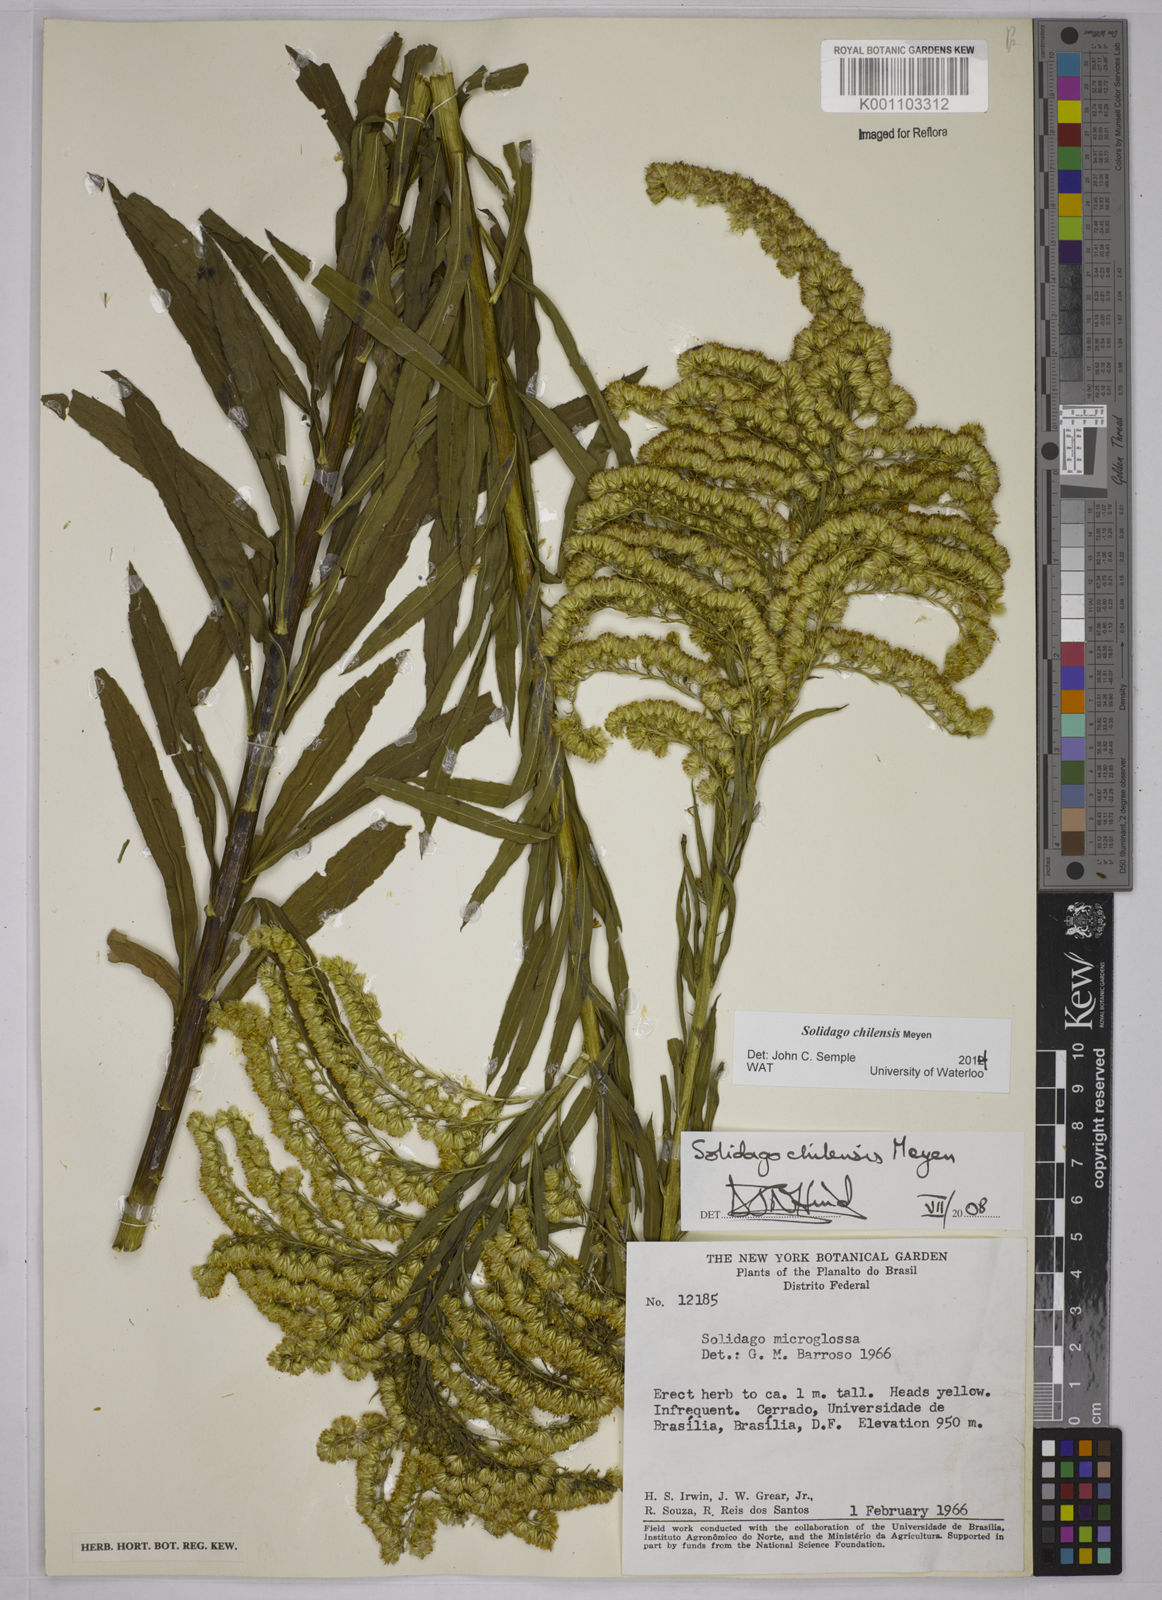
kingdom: Plantae
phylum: Tracheophyta
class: Magnoliopsida
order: Asterales
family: Asteraceae
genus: Solidago
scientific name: Solidago chilensis
